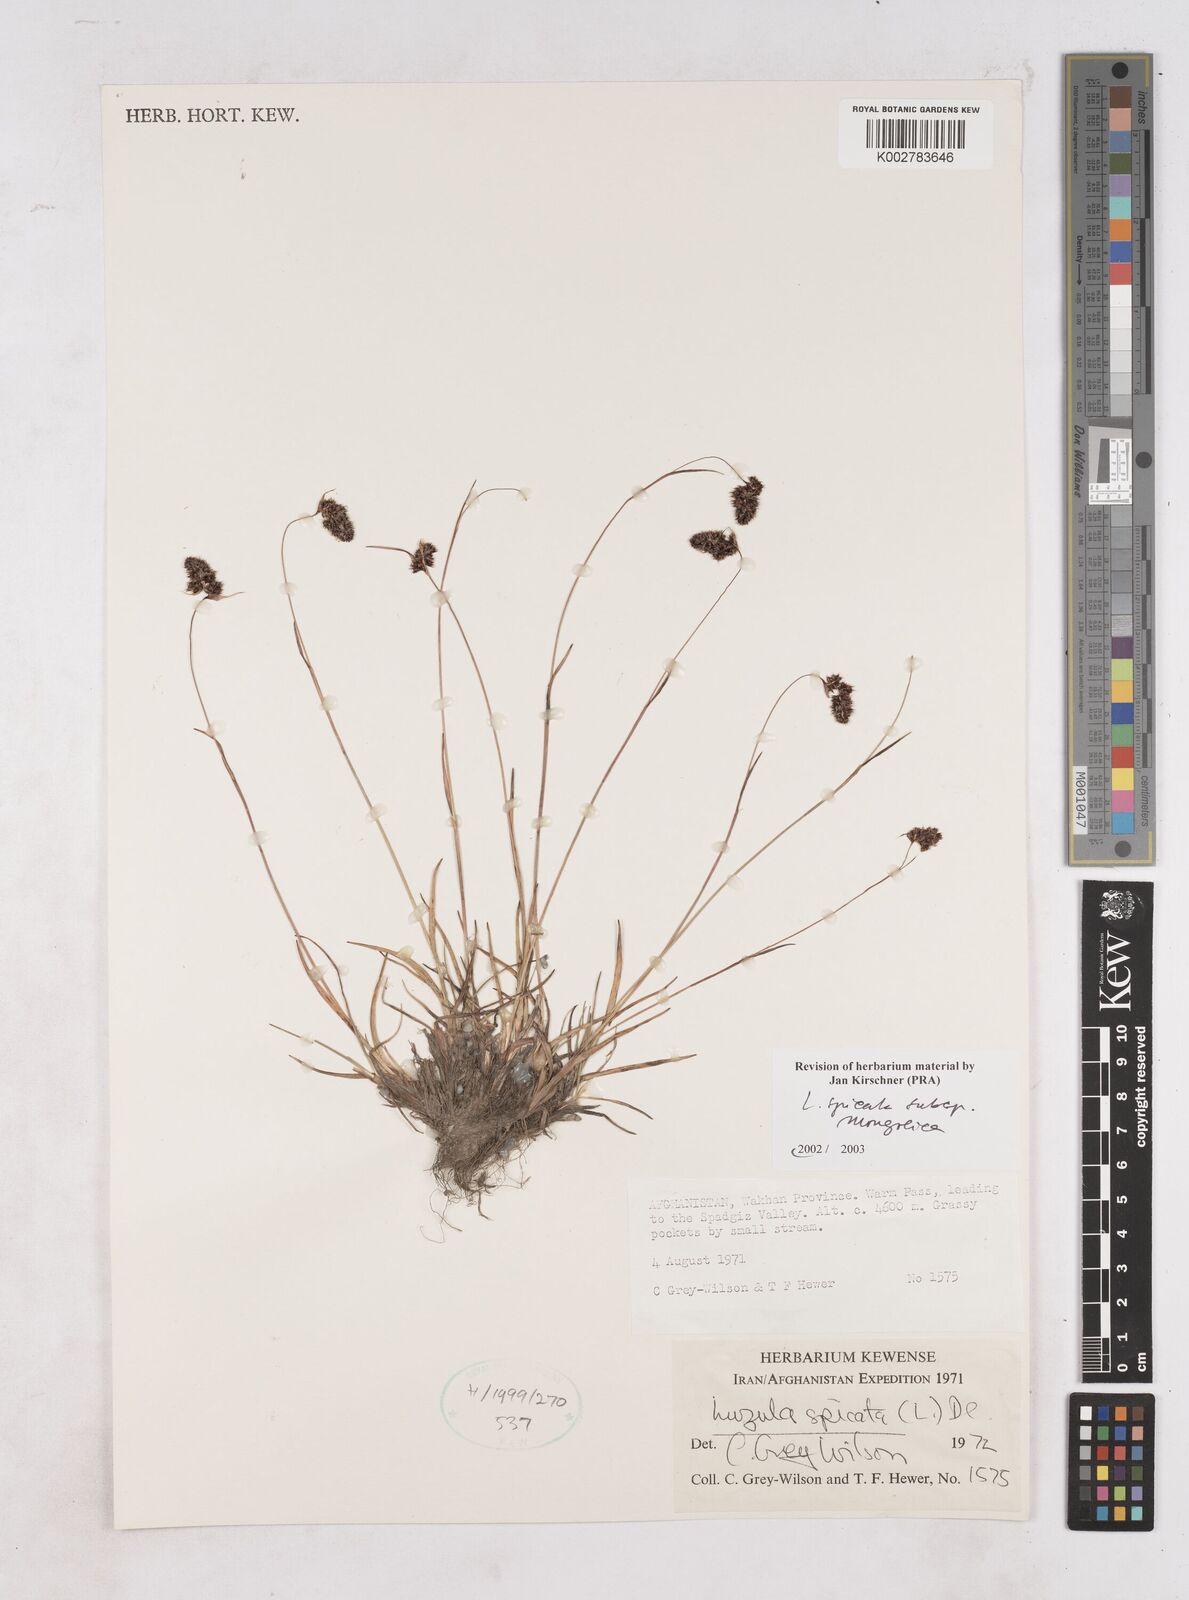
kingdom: Plantae
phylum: Tracheophyta
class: Liliopsida
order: Poales
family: Juncaceae
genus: Luzula
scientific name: Luzula spicata
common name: Spiked wood-rush
